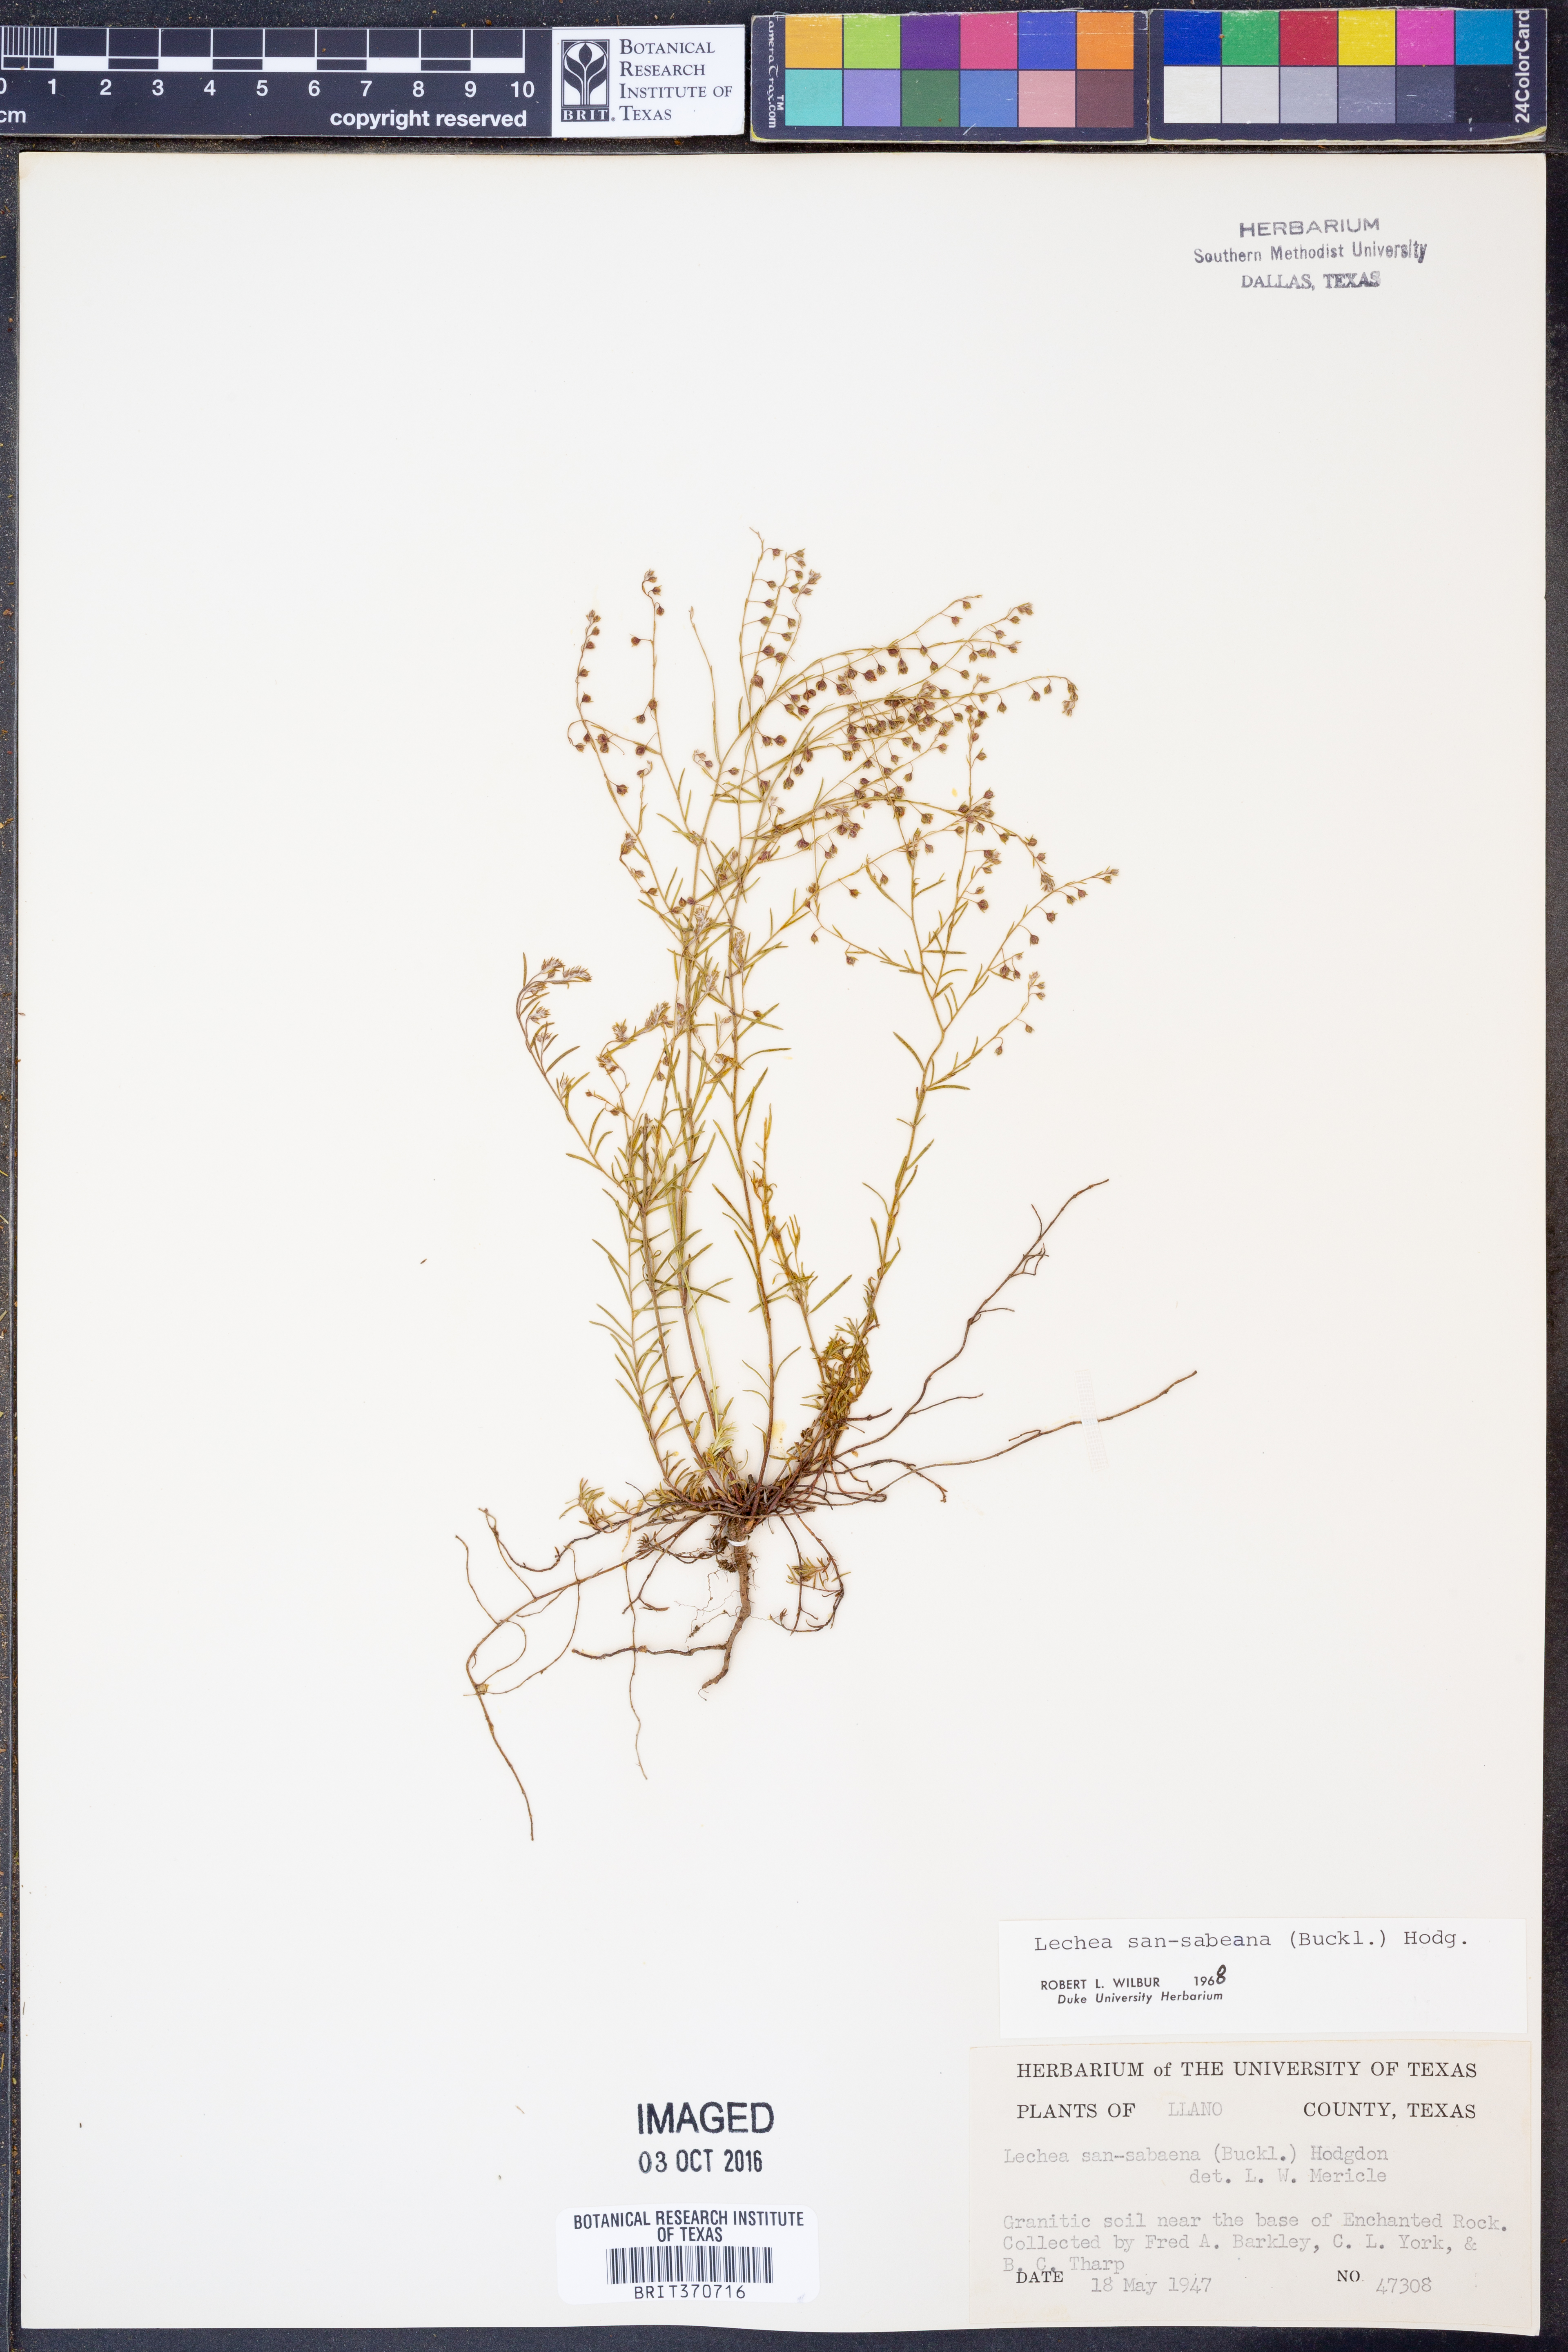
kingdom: Plantae
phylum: Tracheophyta
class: Magnoliopsida
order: Malvales
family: Cistaceae
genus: Lechea
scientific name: Lechea san-sabeana
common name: San saba pinweed
